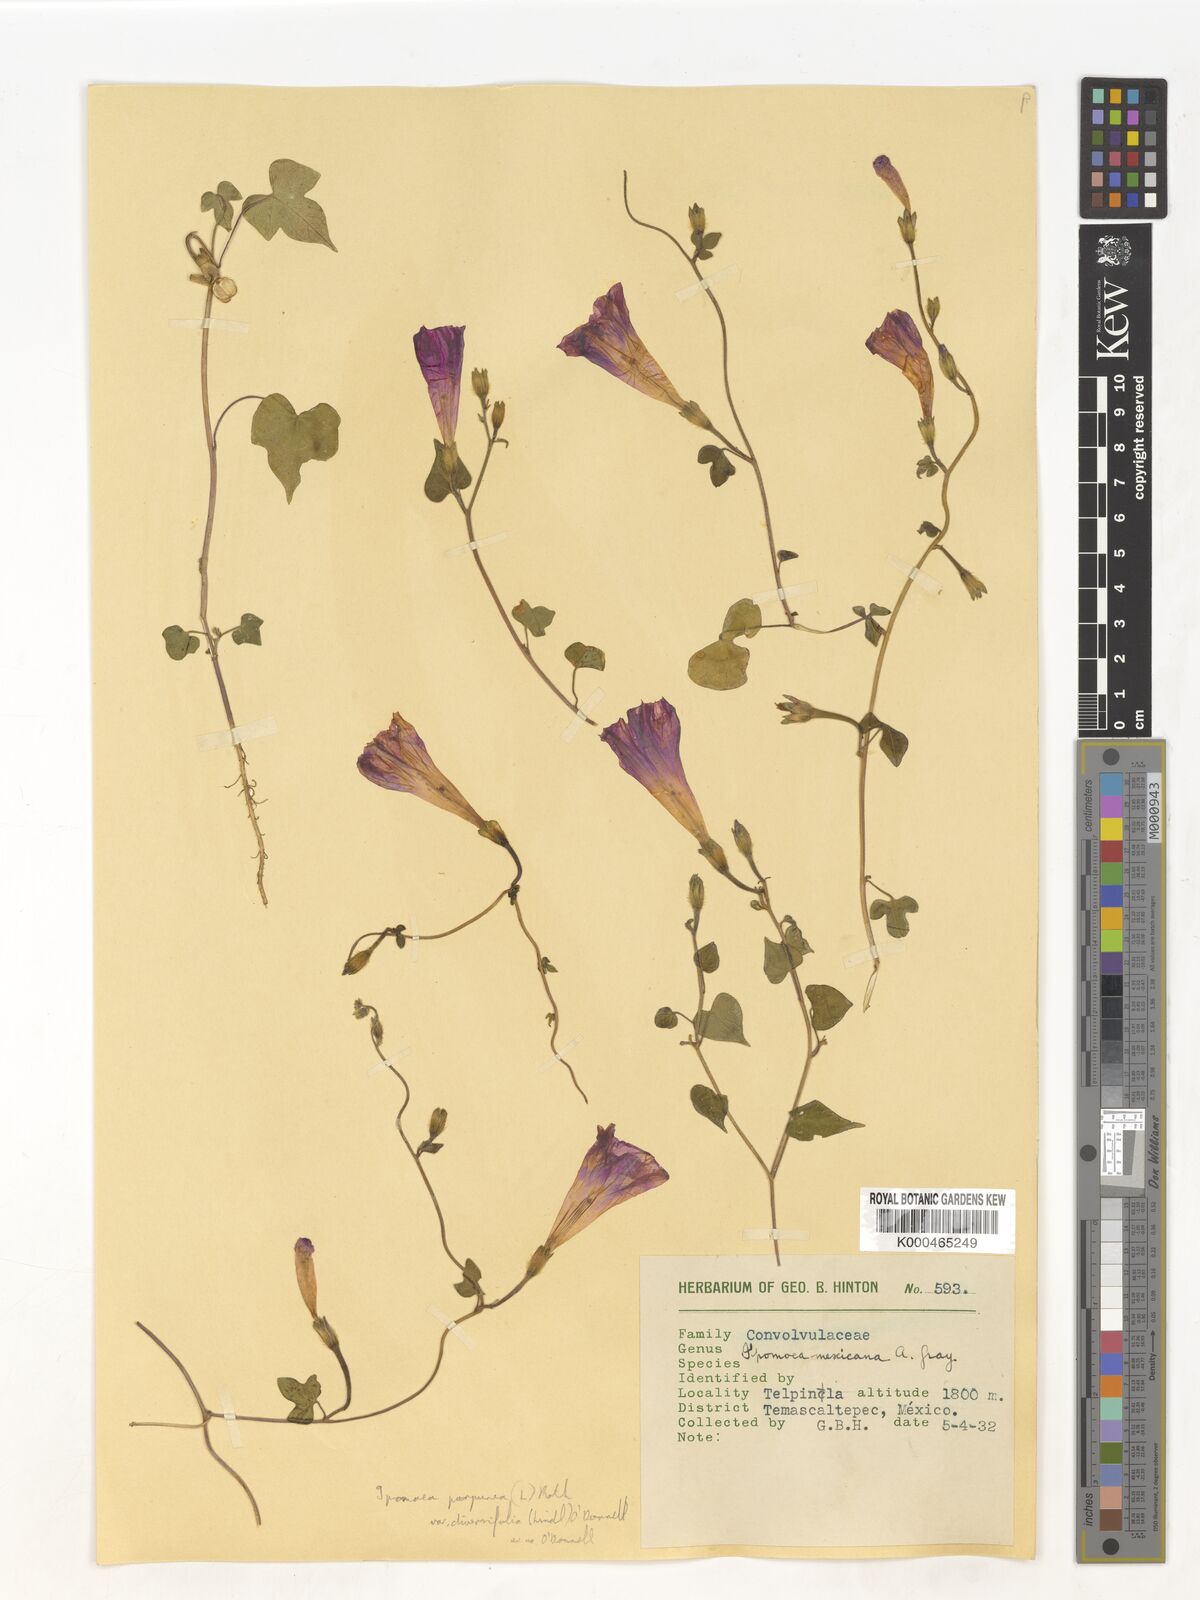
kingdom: Plantae
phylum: Tracheophyta
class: Magnoliopsida
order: Solanales
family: Convolvulaceae
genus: Ipomoea
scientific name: Ipomoea purpurea
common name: Common morning-glory
